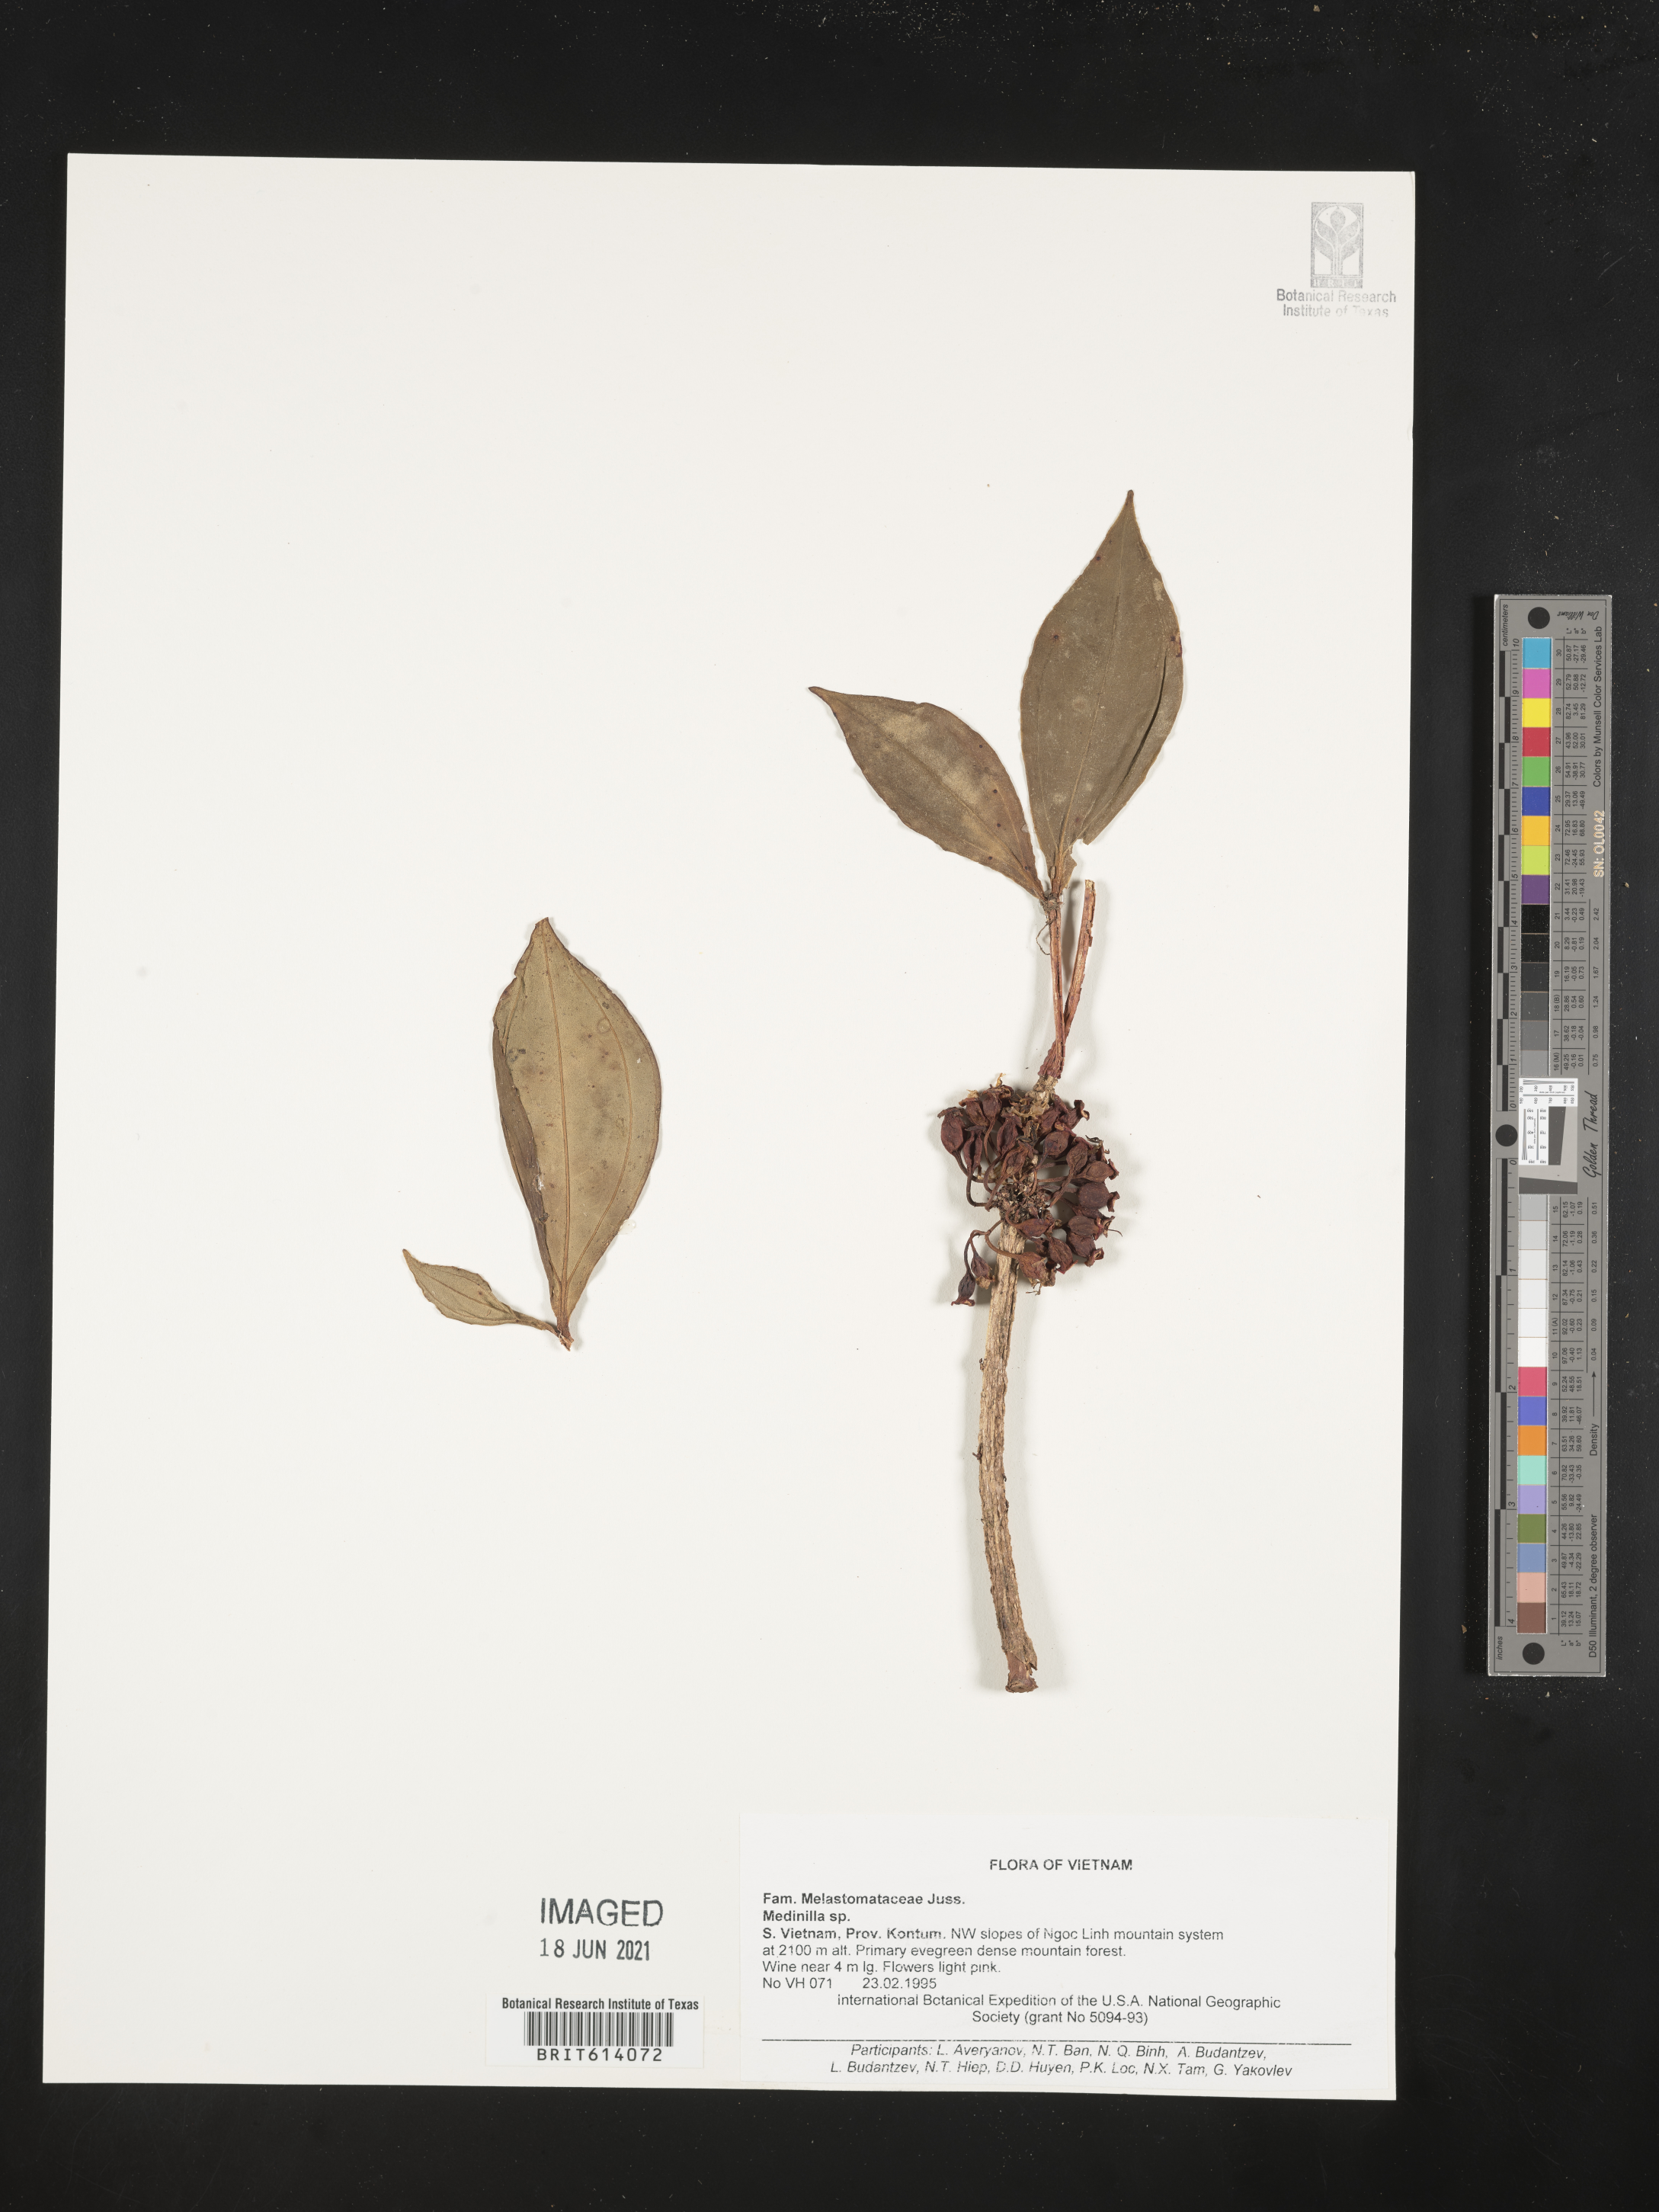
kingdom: Plantae
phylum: Tracheophyta
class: Magnoliopsida
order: Myrtales
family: Melastomataceae
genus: Medinilla
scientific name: Medinilla
